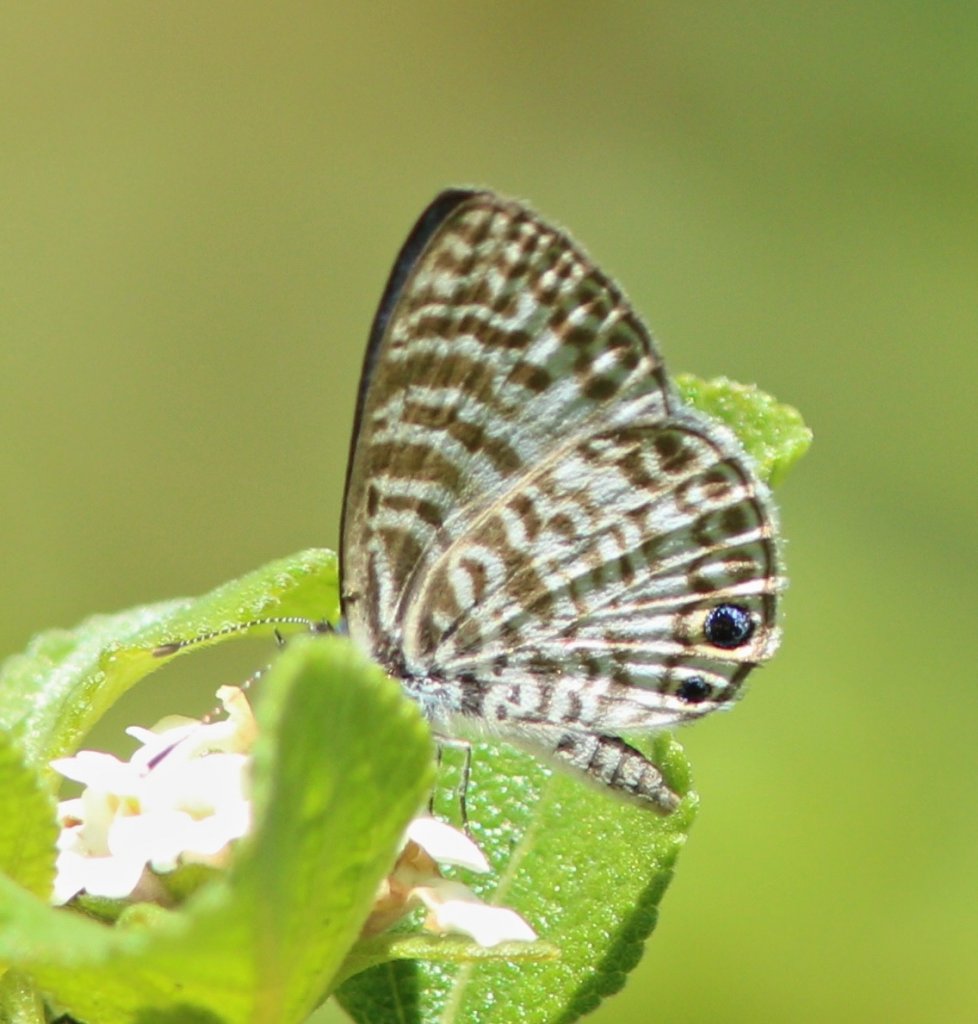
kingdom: Animalia
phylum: Arthropoda
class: Insecta
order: Lepidoptera
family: Lycaenidae
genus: Leptotes
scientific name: Leptotes cassius
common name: Cassius Blue
